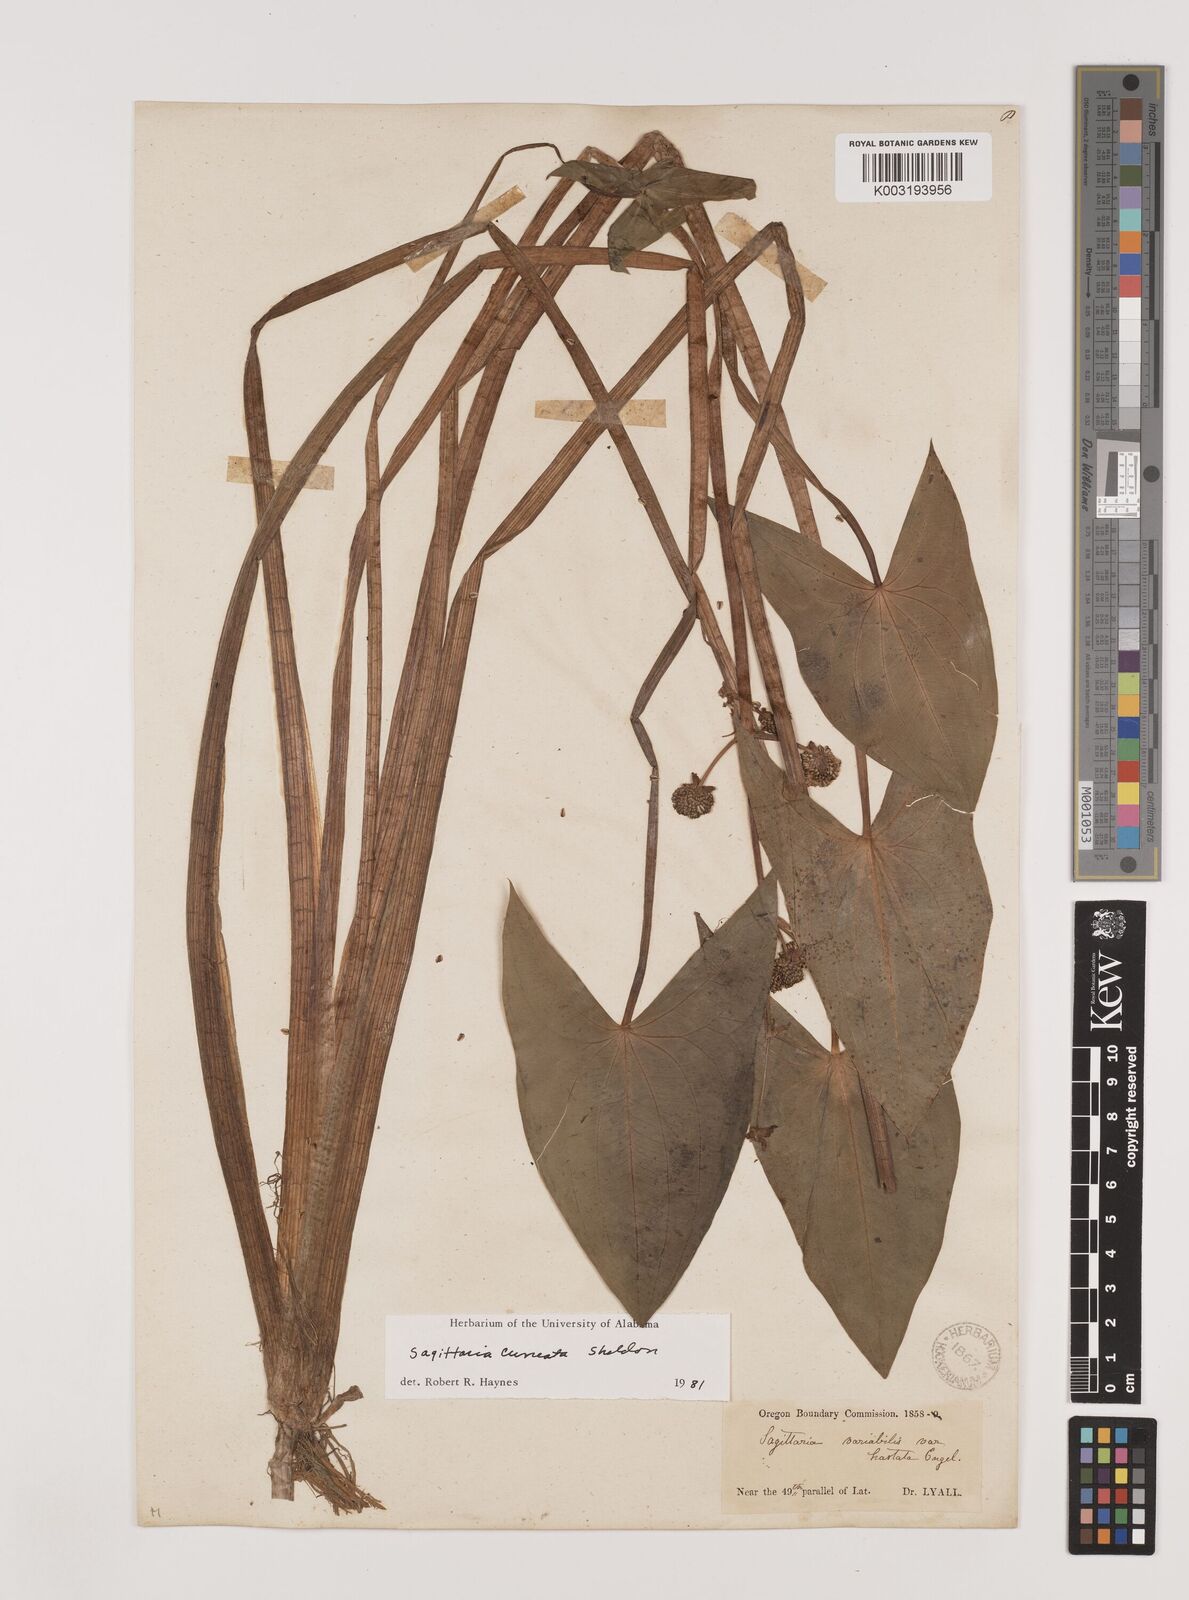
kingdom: Plantae
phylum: Tracheophyta
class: Liliopsida
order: Alismatales
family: Alismataceae
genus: Sagittaria
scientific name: Sagittaria cuneata
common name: Northern arrowhead
